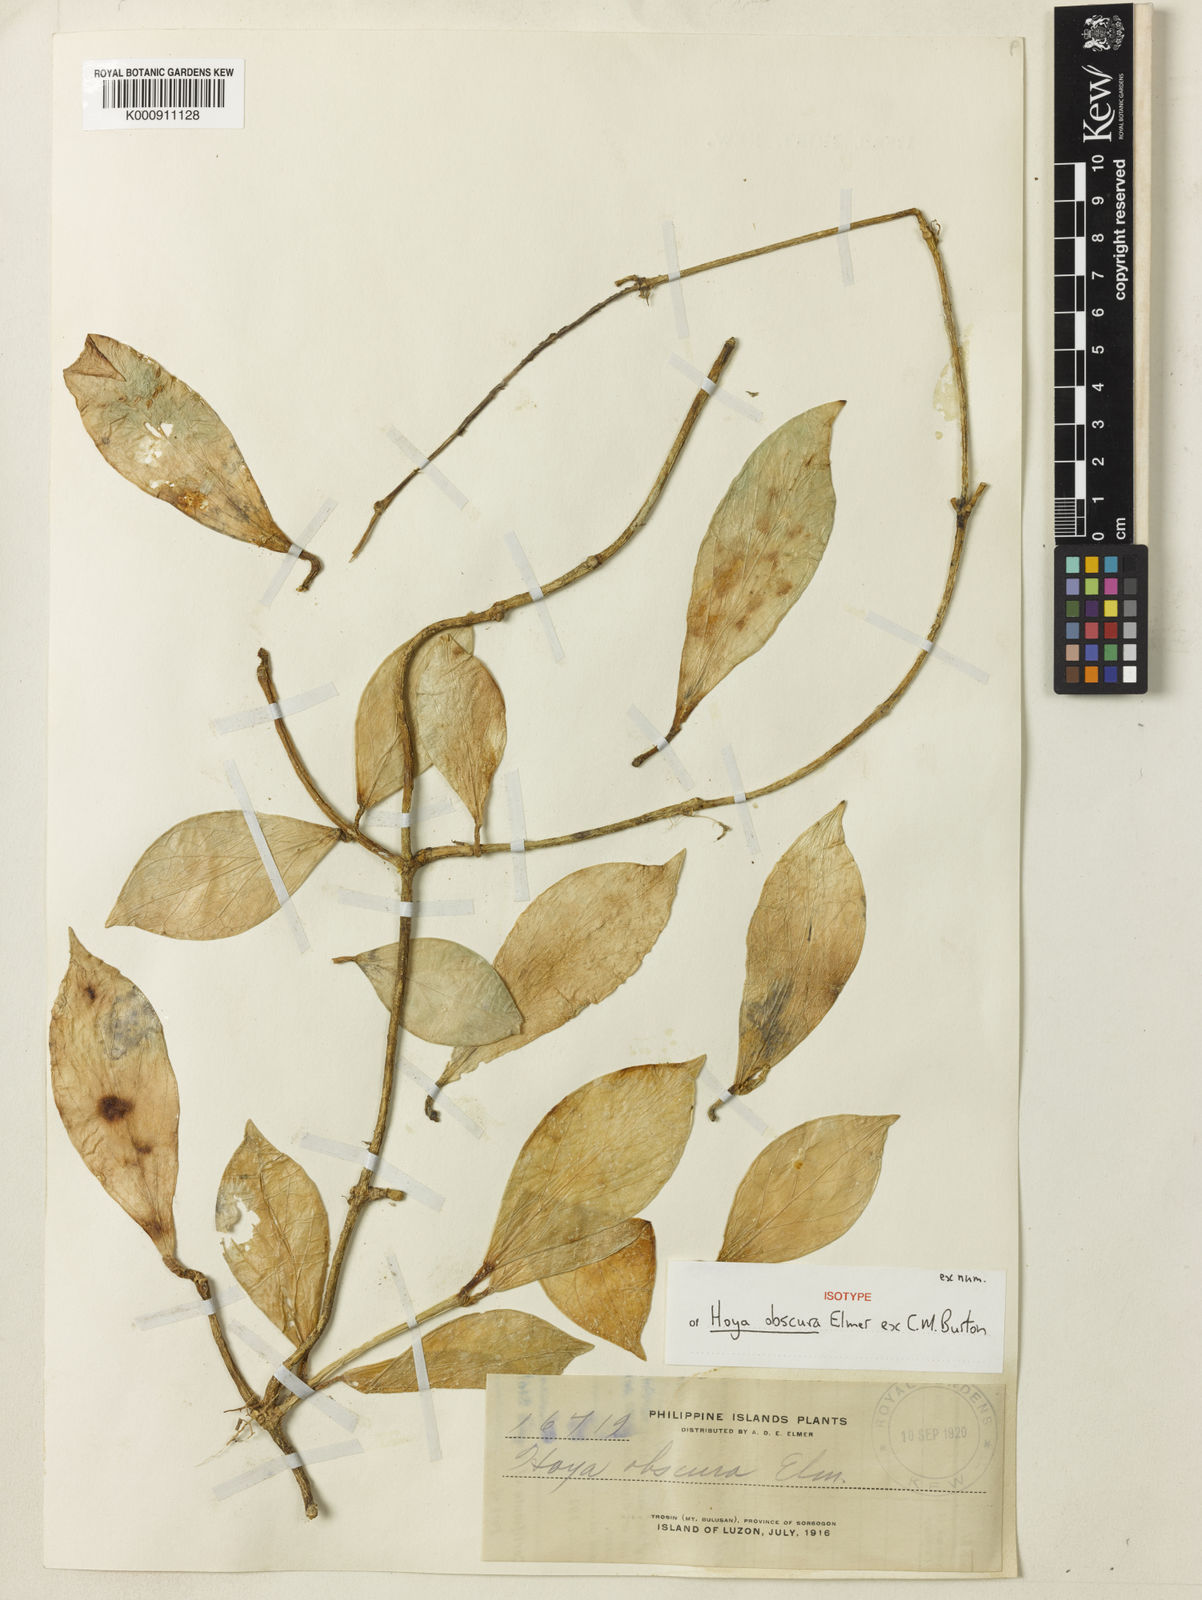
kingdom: Plantae
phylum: Tracheophyta
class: Magnoliopsida
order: Gentianales
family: Apocynaceae
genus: Hoya
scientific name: Hoya obscura
